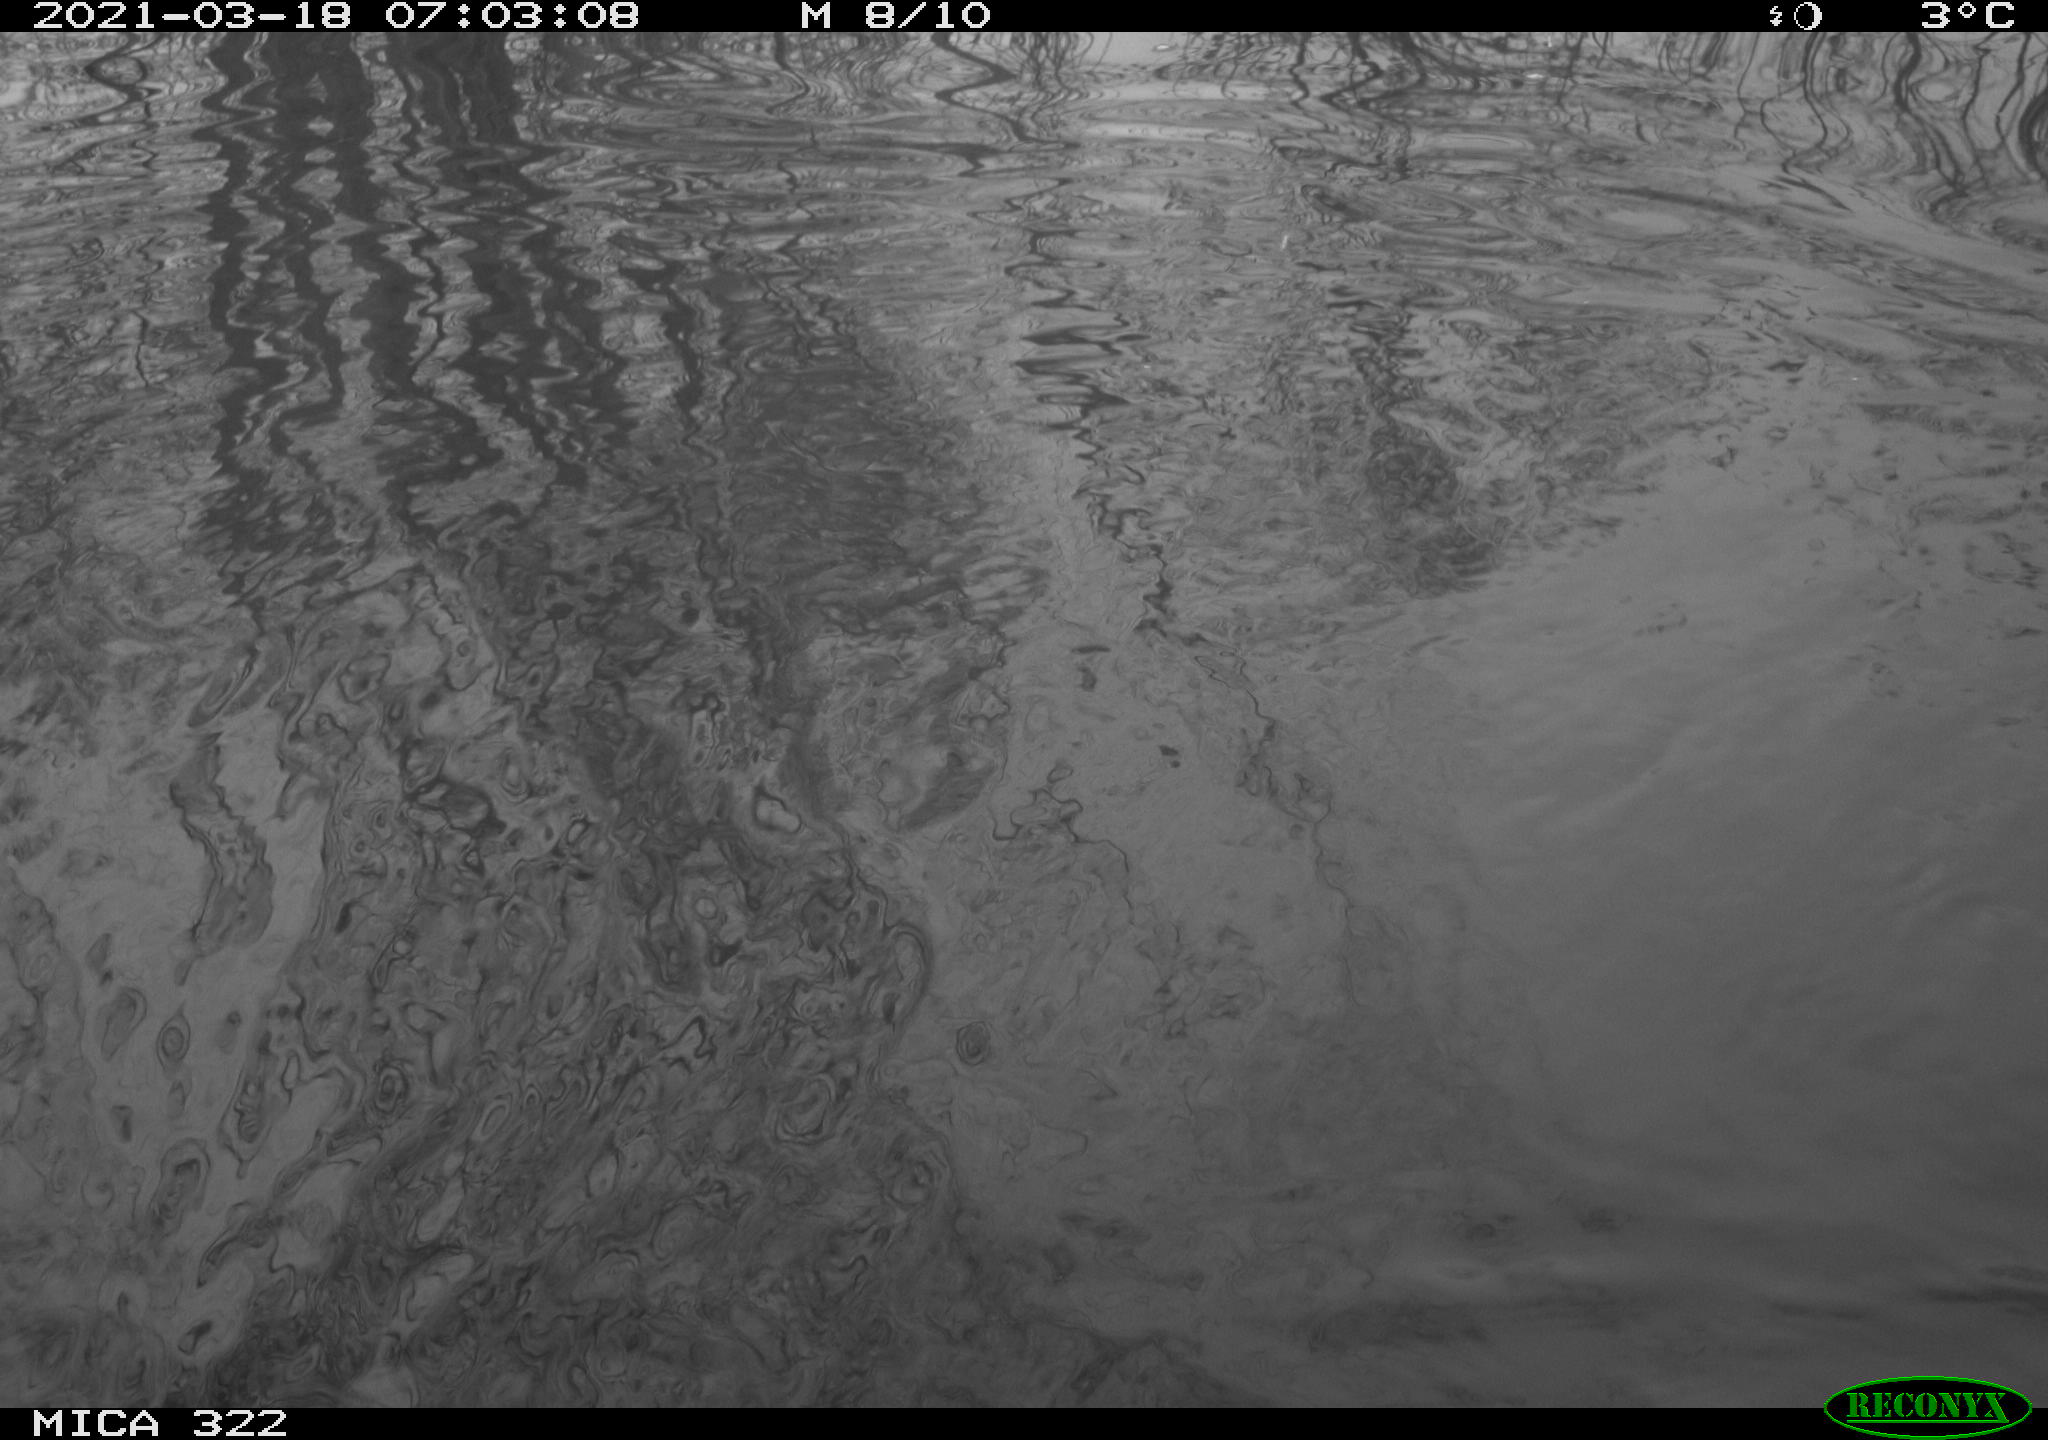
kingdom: Animalia
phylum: Chordata
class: Aves
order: Anseriformes
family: Anatidae
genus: Mareca
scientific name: Mareca strepera
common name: Gadwall
